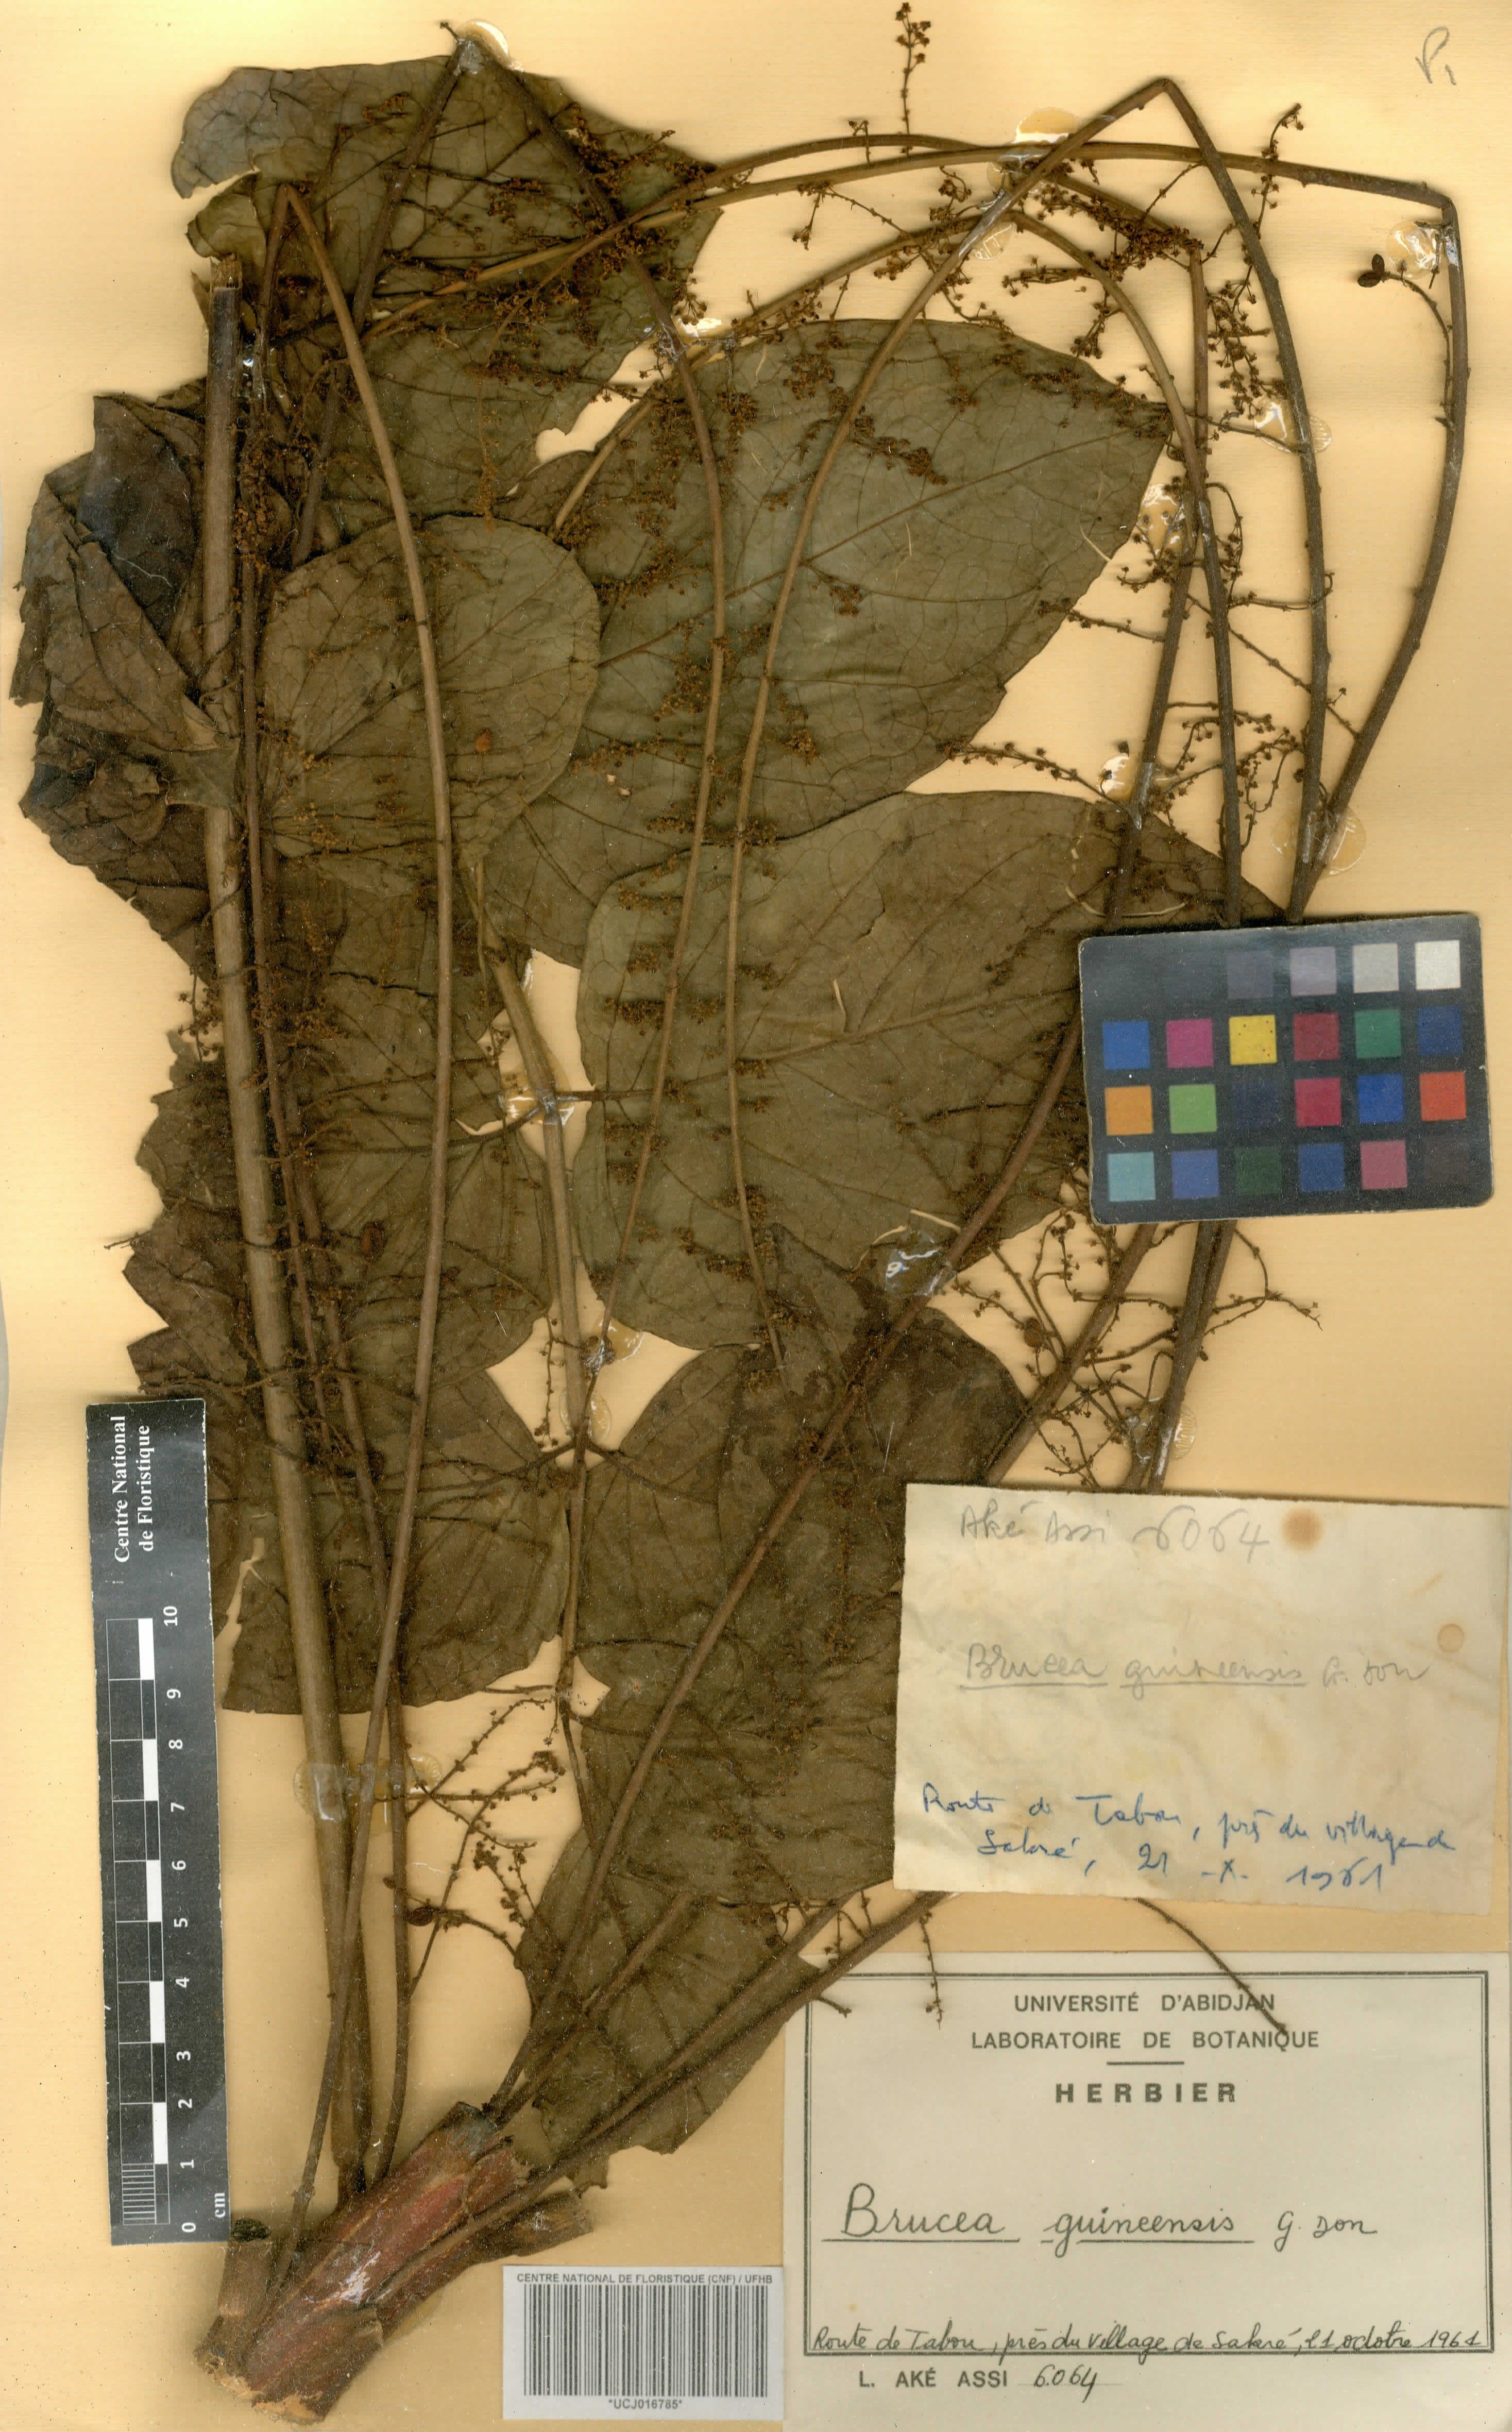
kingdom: Plantae
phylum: Tracheophyta
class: Magnoliopsida
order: Sapindales
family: Anacardiaceae
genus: Trichoscypha
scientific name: Trichoscypha smythei
